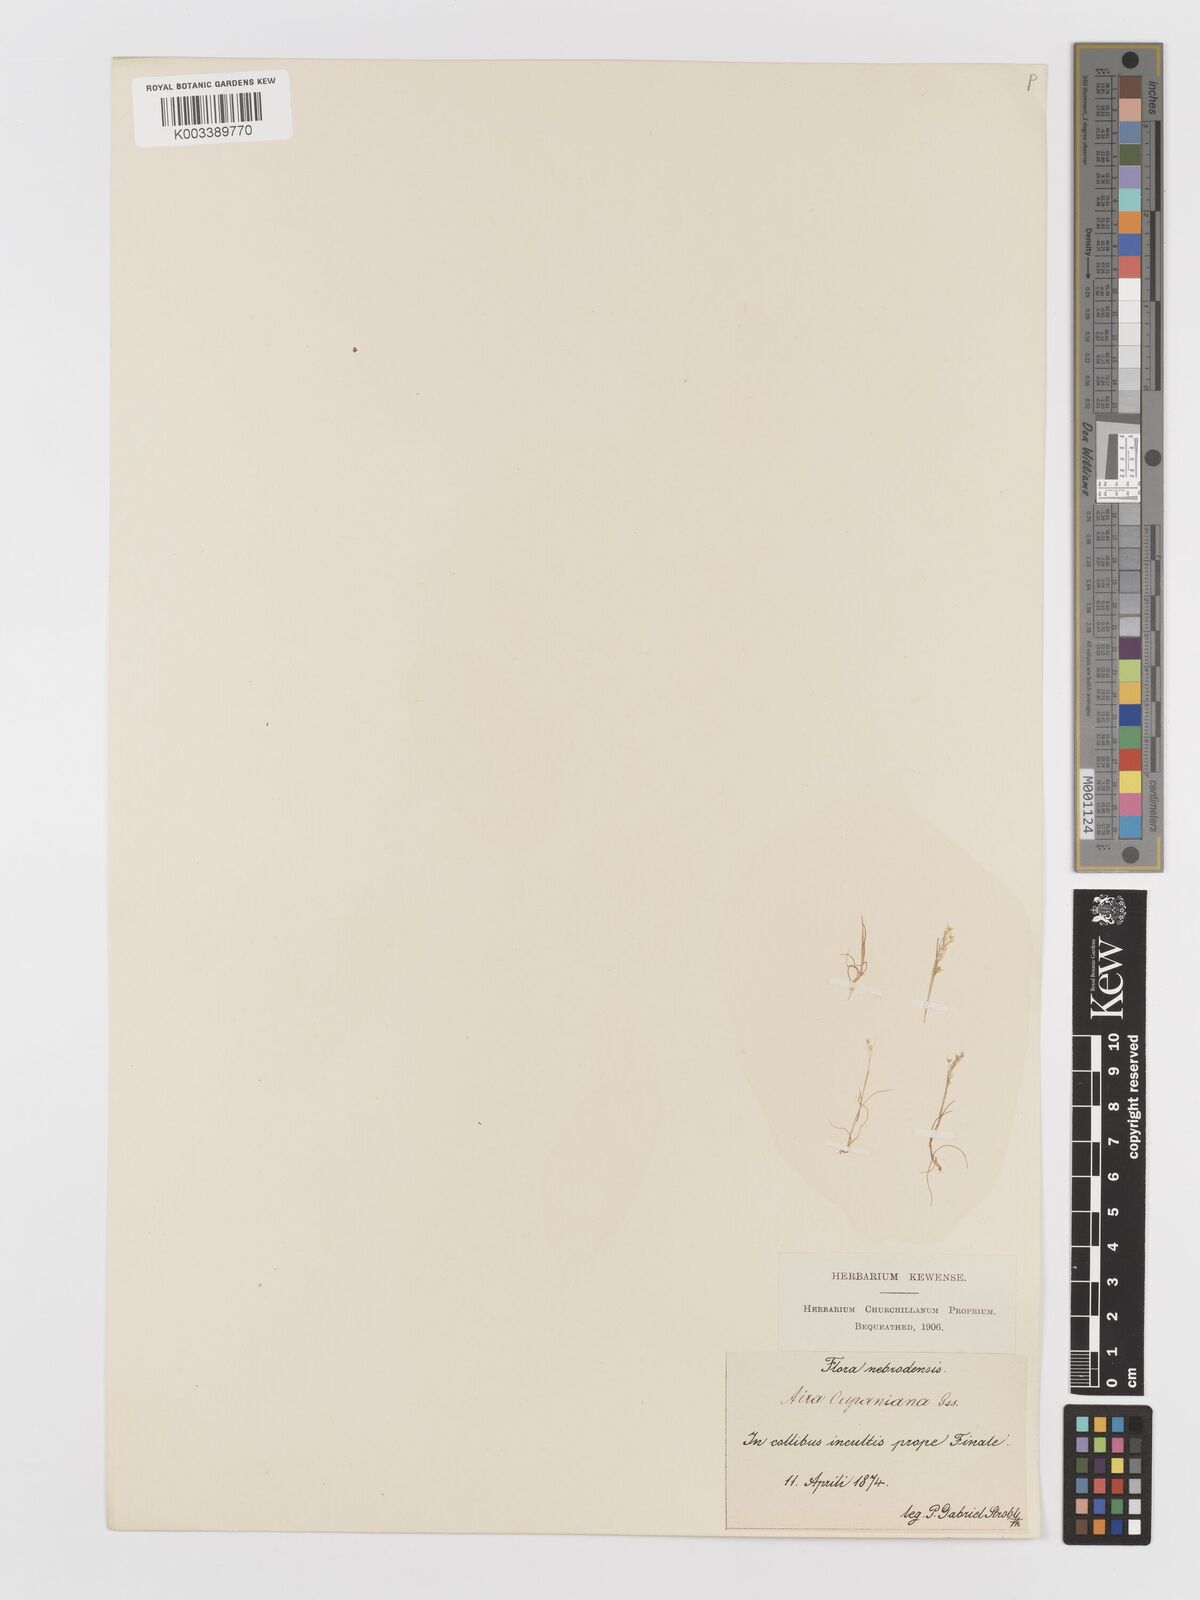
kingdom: Plantae
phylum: Tracheophyta
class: Liliopsida
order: Poales
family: Poaceae
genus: Aira
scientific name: Aira cupaniana
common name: Silver hairgrass
